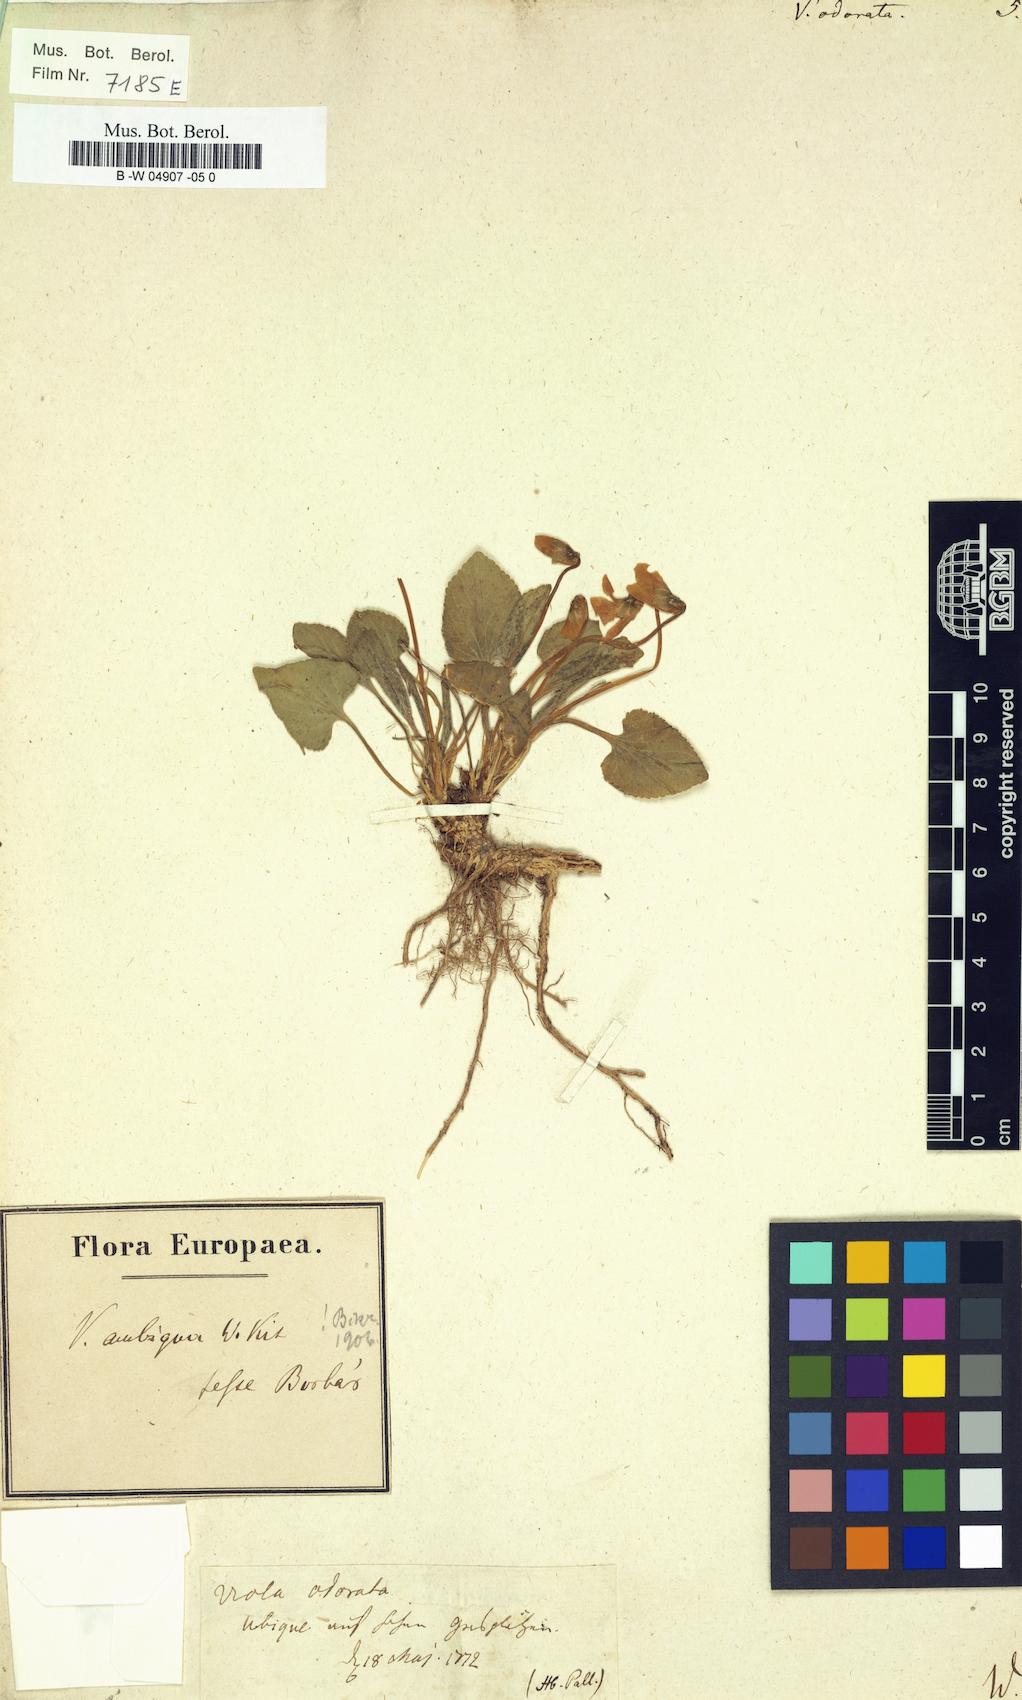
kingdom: Plantae
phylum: Tracheophyta
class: Magnoliopsida
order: Malpighiales
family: Violaceae
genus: Viola
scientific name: Viola odorata
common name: Sweet violet
